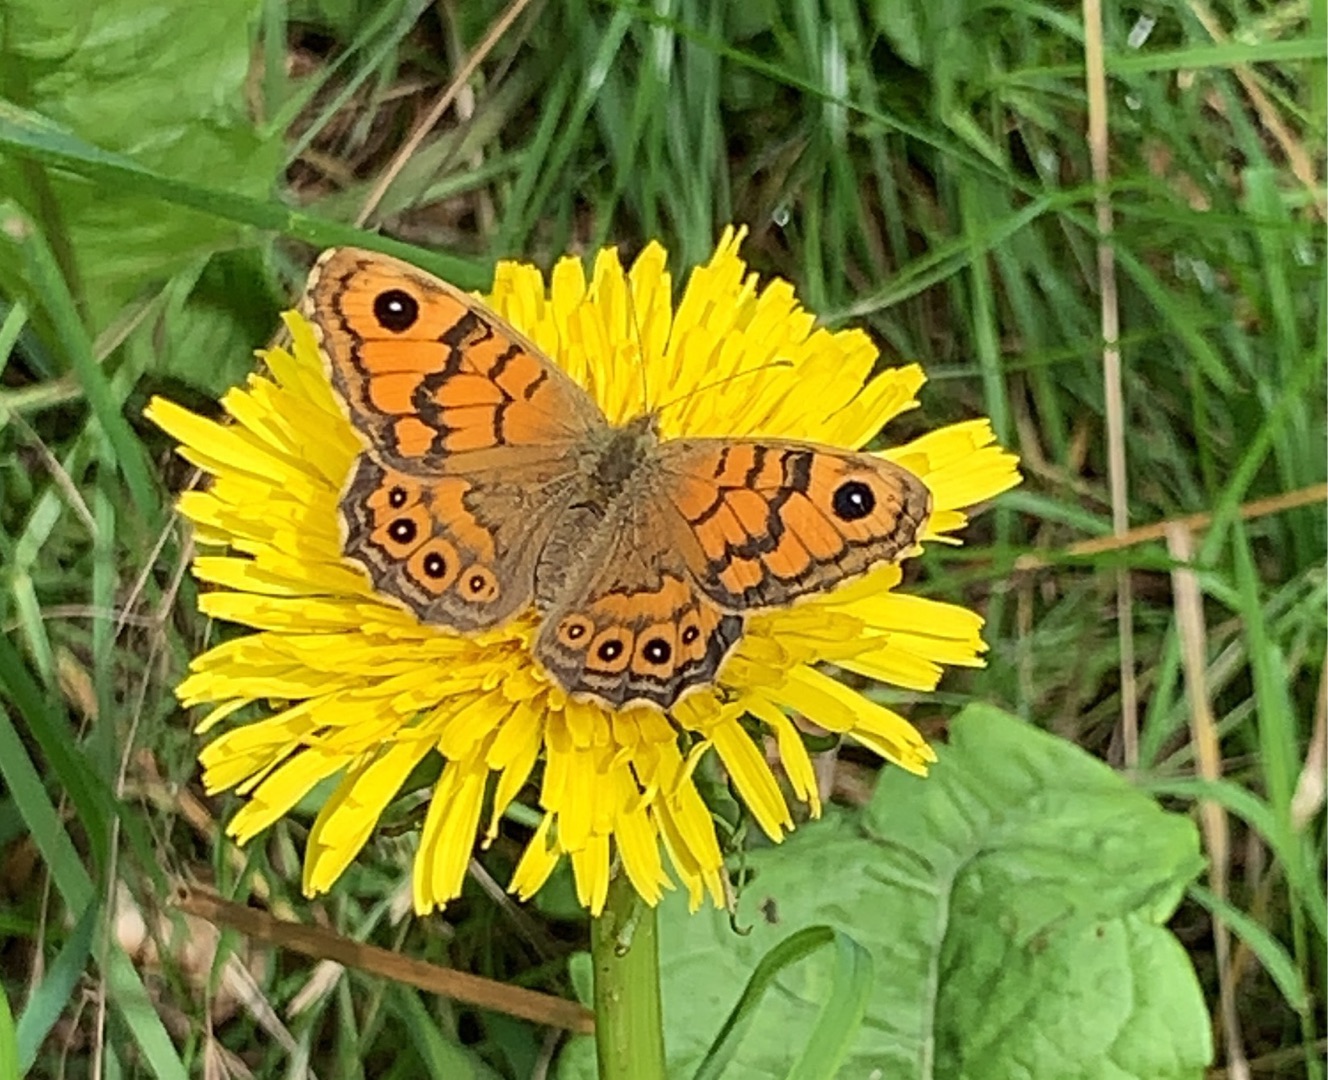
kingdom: Animalia
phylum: Arthropoda
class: Insecta
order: Lepidoptera
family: Nymphalidae
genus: Pararge
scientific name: Pararge Lasiommata megera
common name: Vejrandøje
